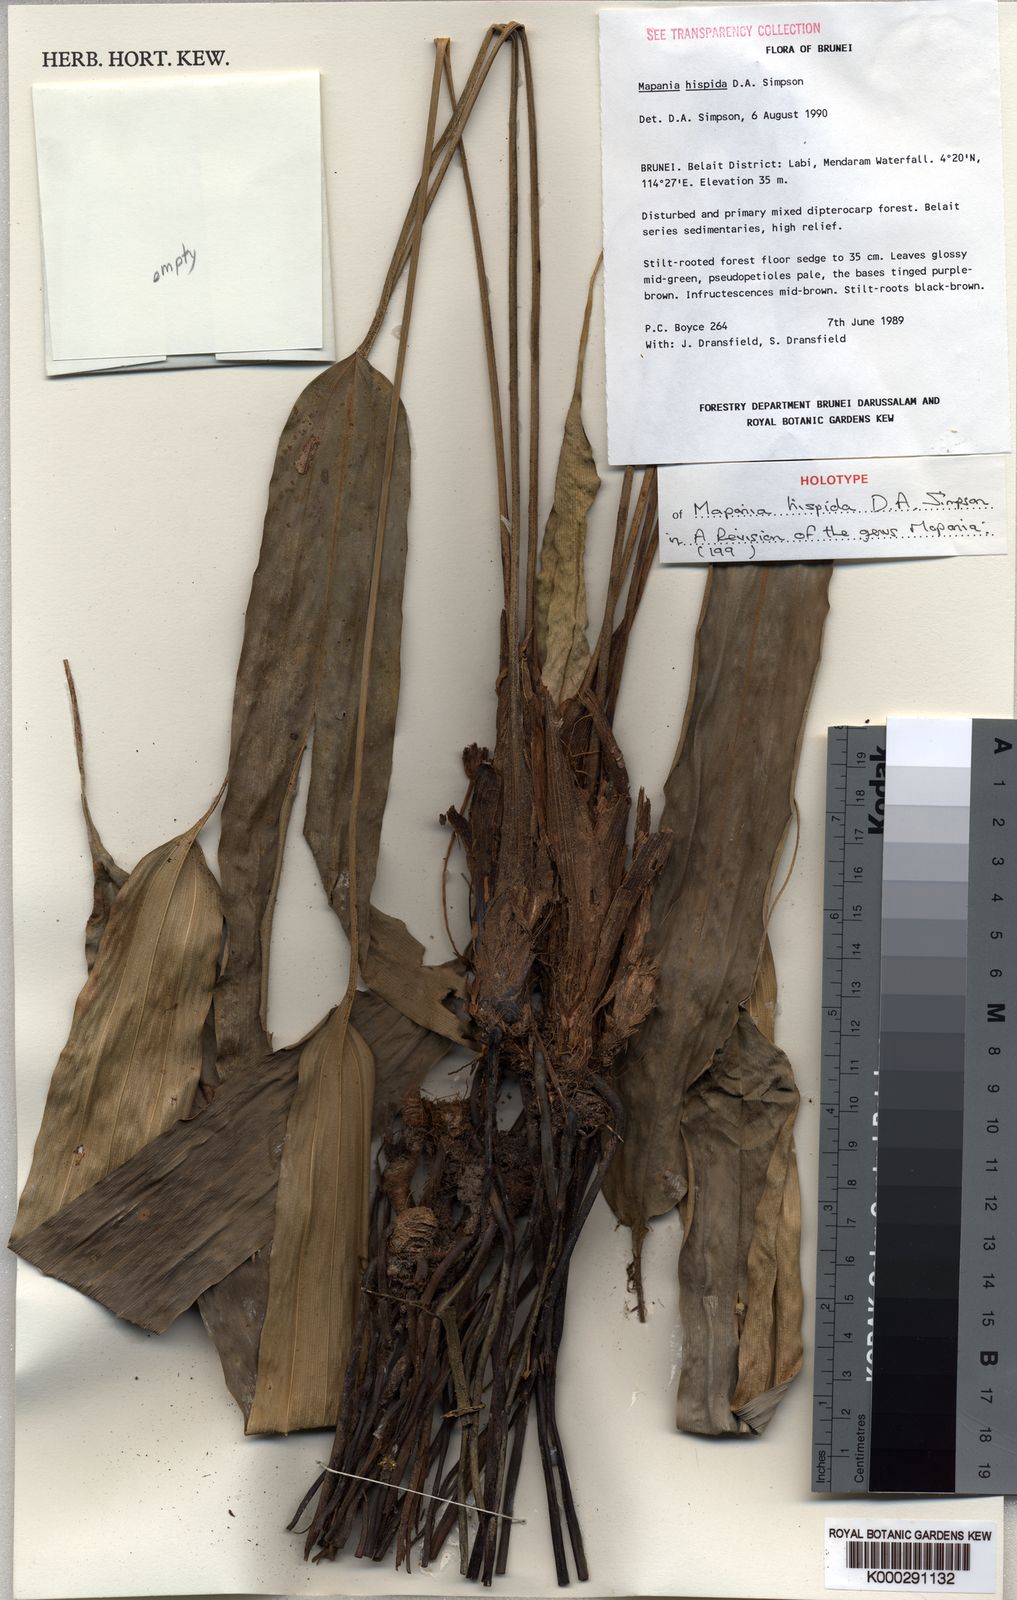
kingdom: Plantae
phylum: Tracheophyta
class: Liliopsida
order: Poales
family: Cyperaceae
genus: Mapania
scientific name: Mapania hispida
